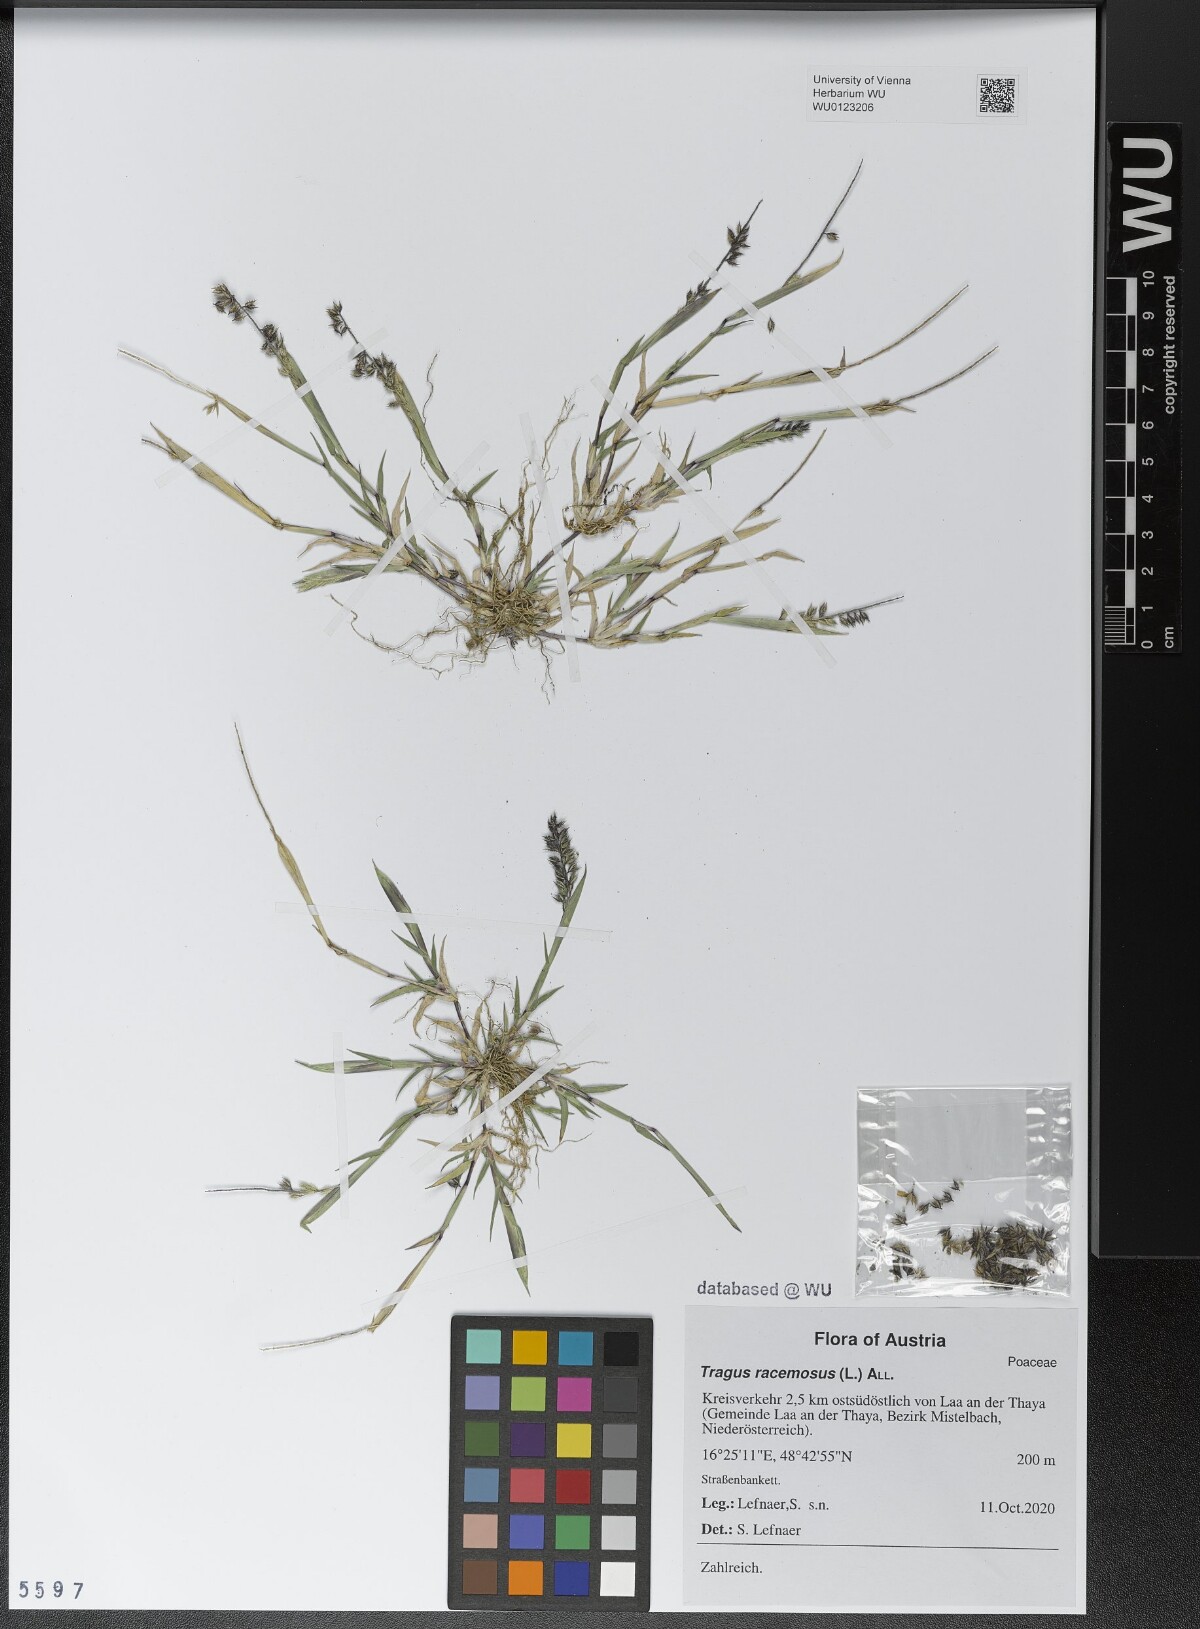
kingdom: Plantae
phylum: Tracheophyta
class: Liliopsida
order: Poales
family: Poaceae
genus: Tragus
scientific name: Tragus racemosus
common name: European bur-grass
